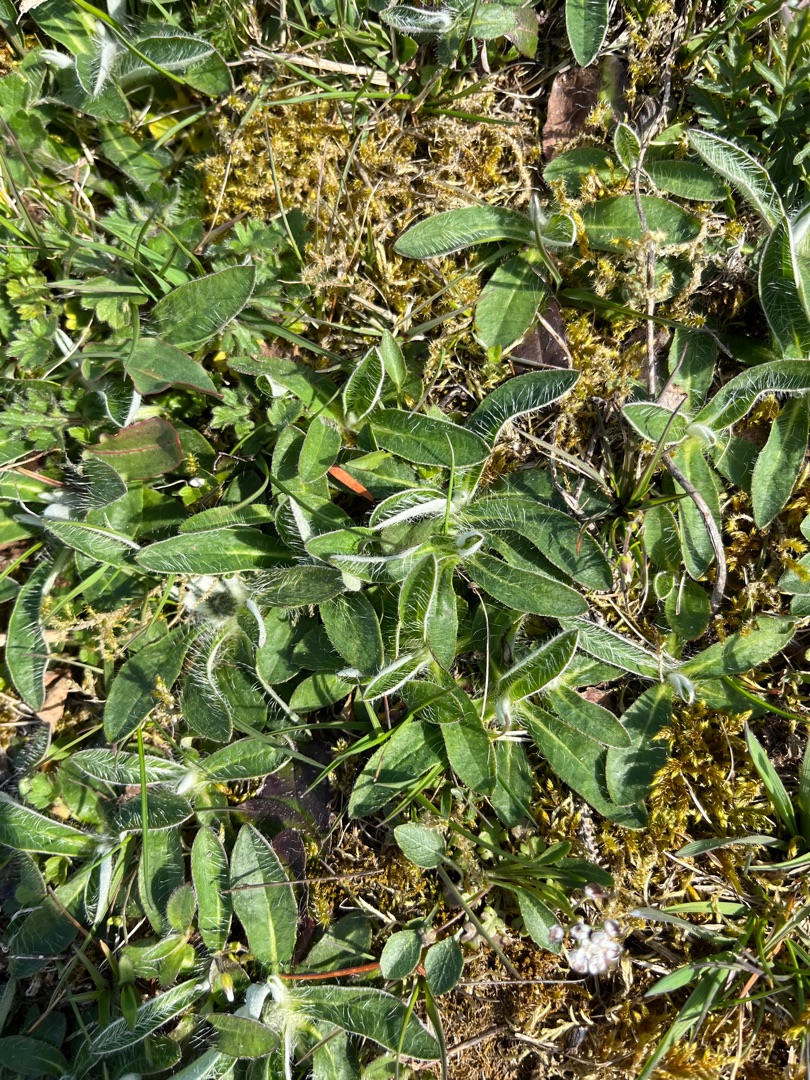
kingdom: Plantae
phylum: Tracheophyta
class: Magnoliopsida
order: Asterales
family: Asteraceae
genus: Pilosella
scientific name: Pilosella officinarum
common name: Håret høgeurt
